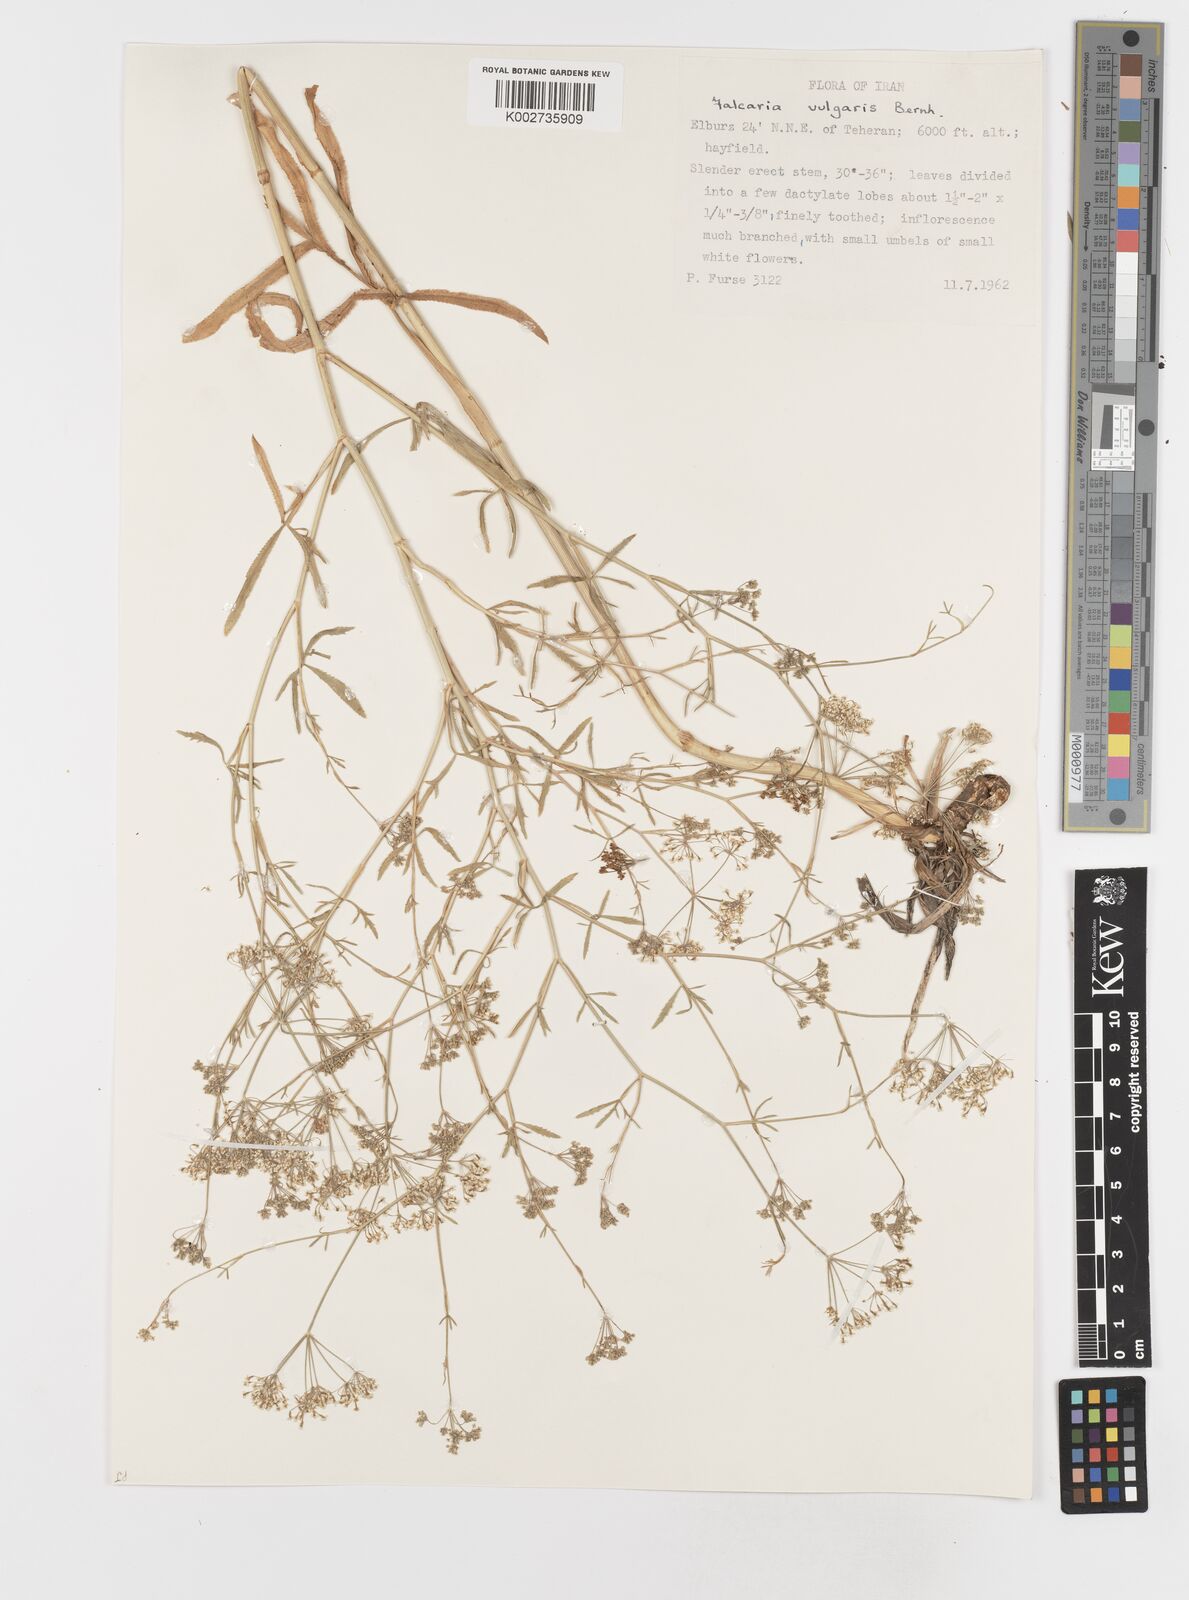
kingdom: Plantae
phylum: Tracheophyta
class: Magnoliopsida
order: Apiales
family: Apiaceae
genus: Falcaria
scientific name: Falcaria vulgaris
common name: Longleaf
